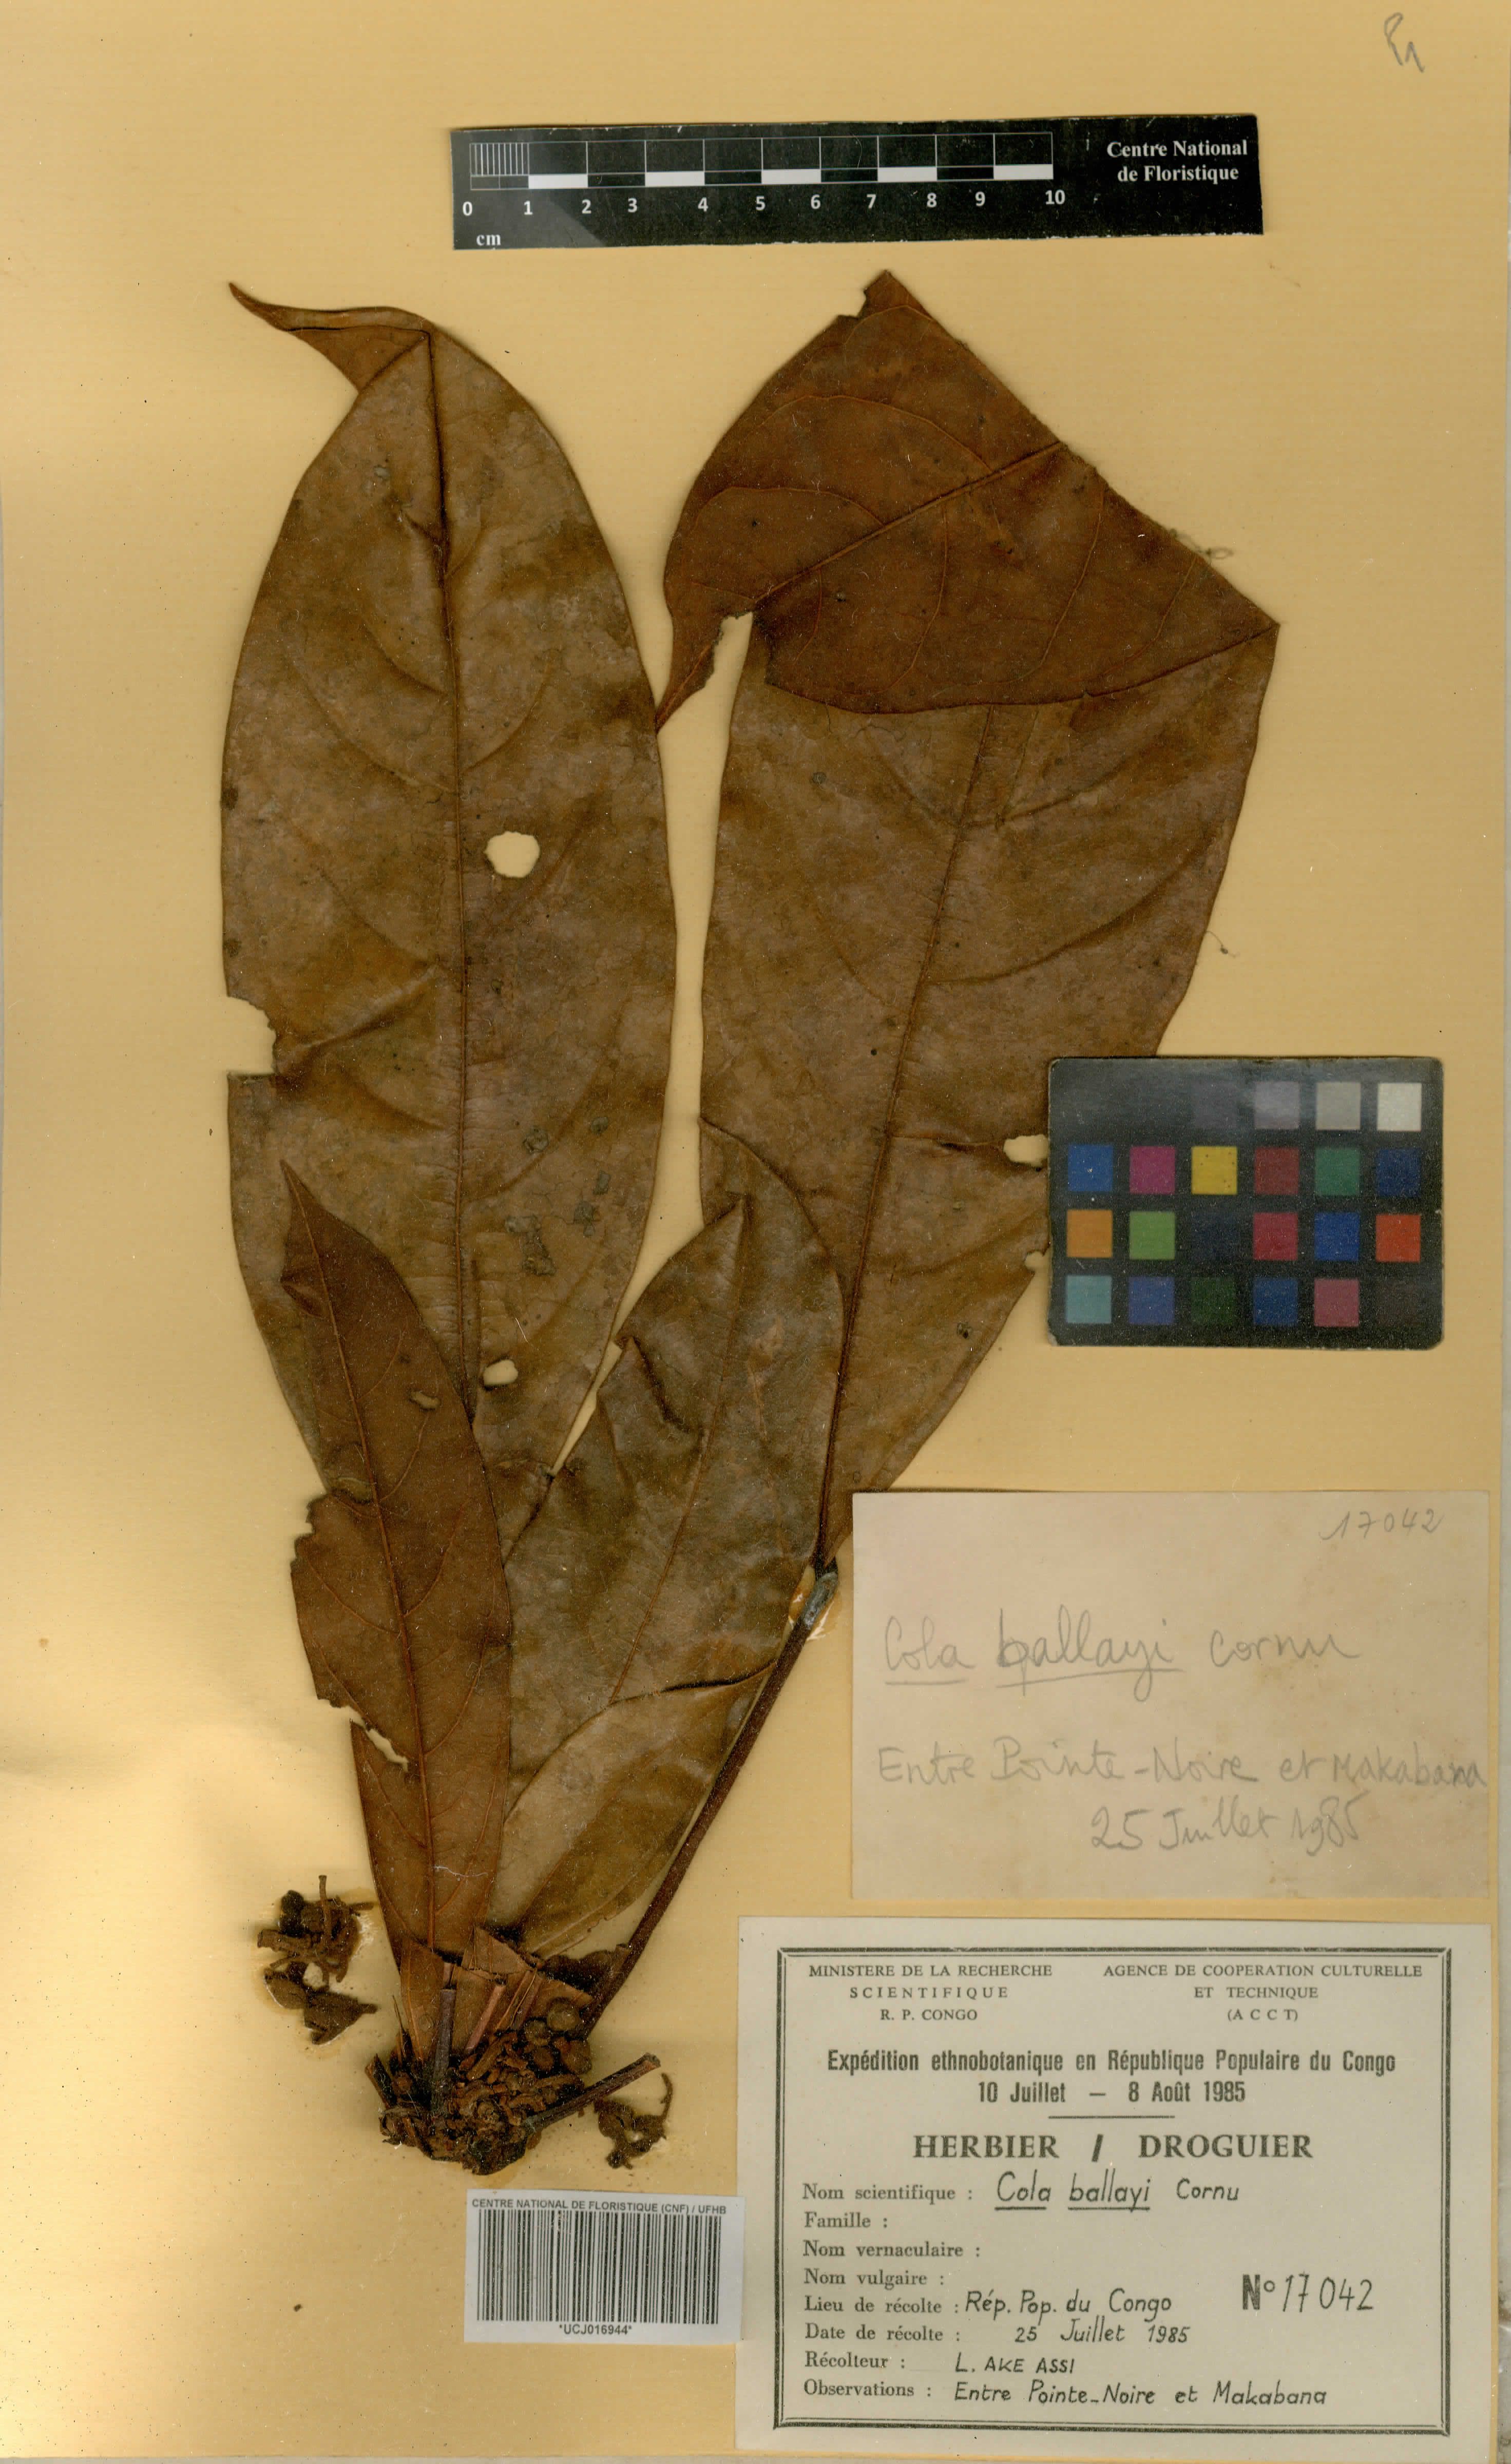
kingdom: Plantae
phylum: Tracheophyta
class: Magnoliopsida
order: Malvales
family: Malvaceae
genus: Cola
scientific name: Cola ballayi
